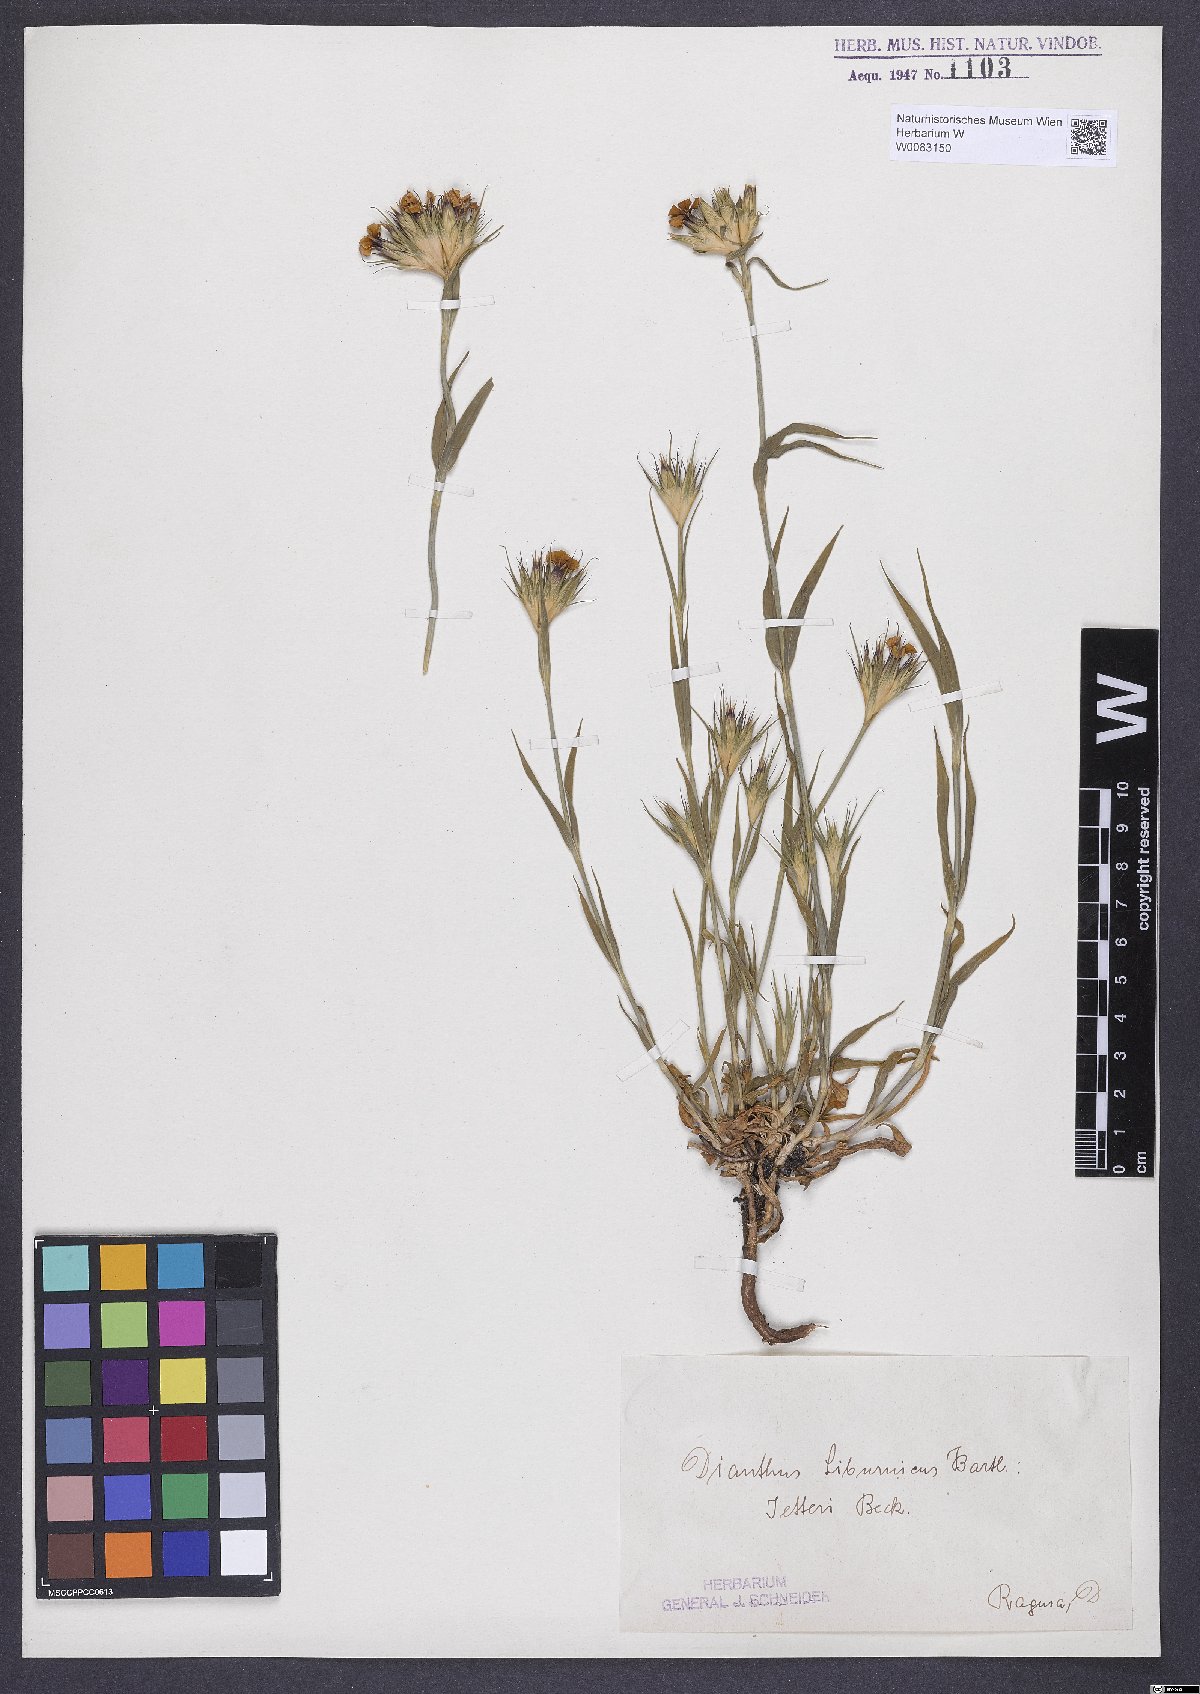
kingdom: Plantae
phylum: Tracheophyta
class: Magnoliopsida
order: Caryophyllales
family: Caryophyllaceae
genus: Dianthus
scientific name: Dianthus balbisii
